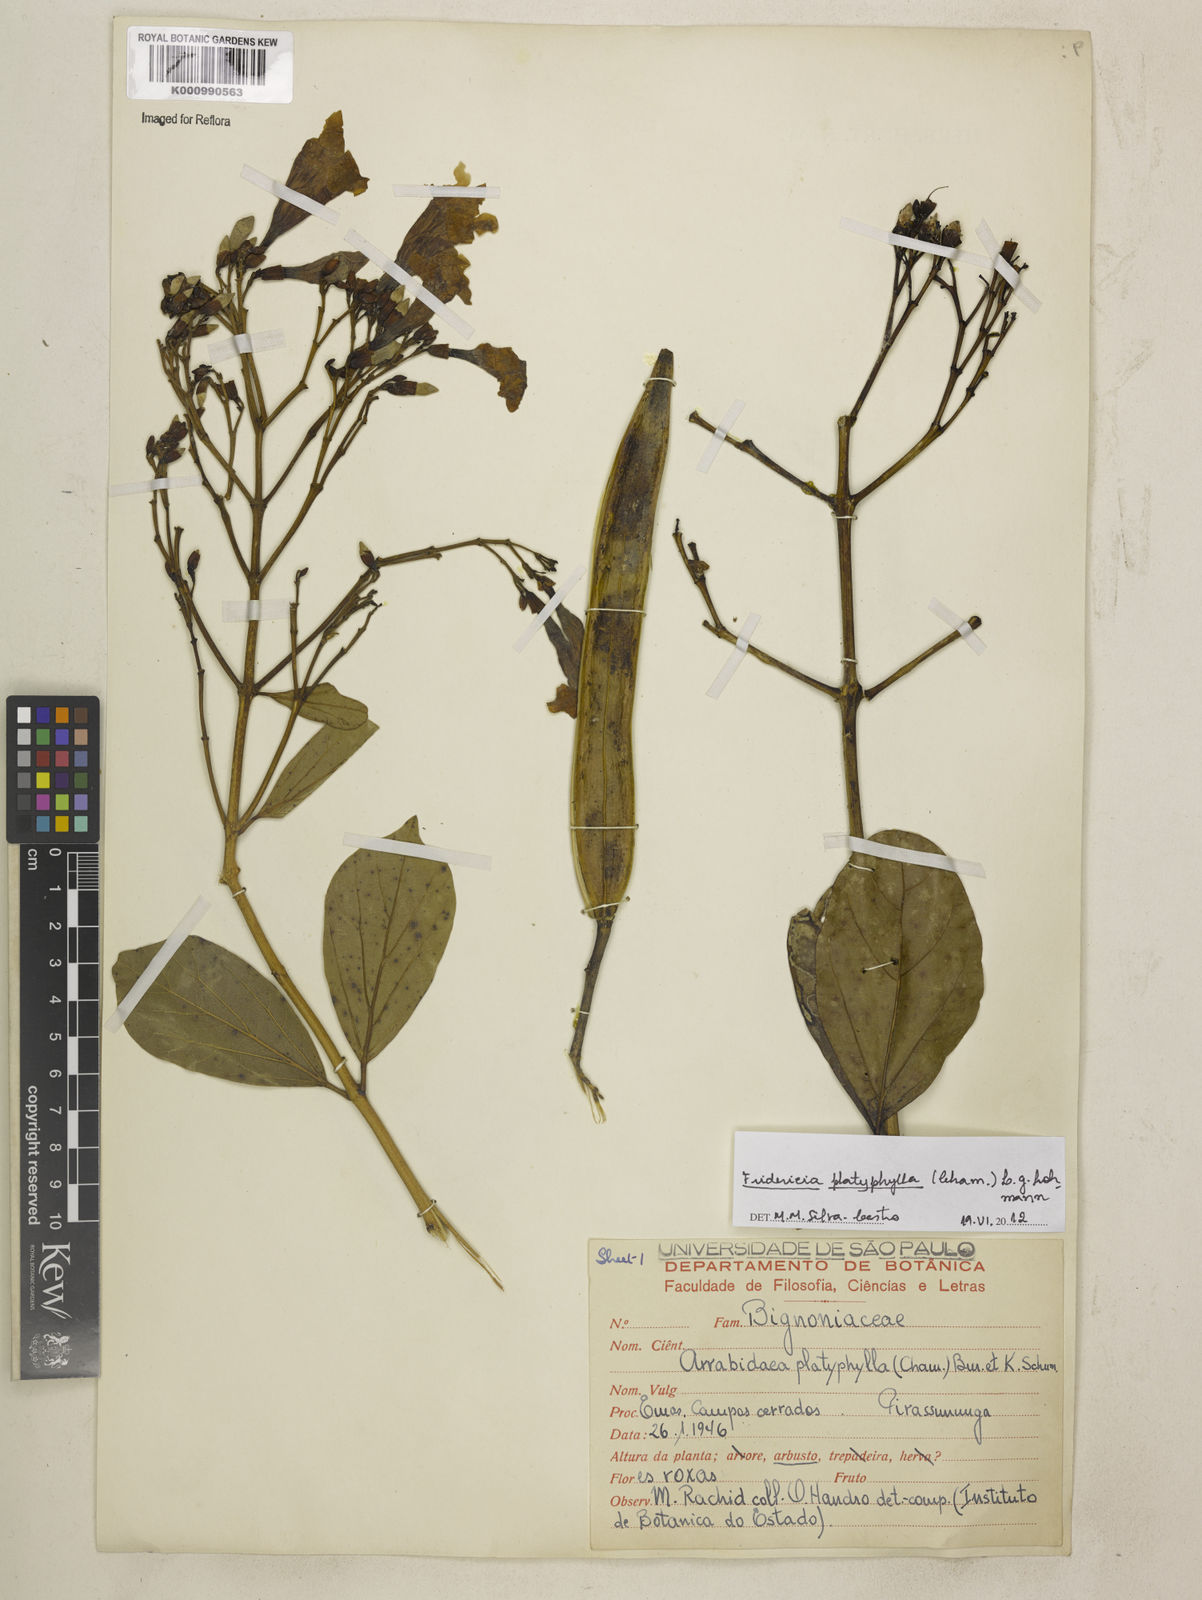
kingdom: Plantae
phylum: Tracheophyta
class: Magnoliopsida
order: Lamiales
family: Bignoniaceae
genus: Fridericia
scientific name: Fridericia platyphylla
